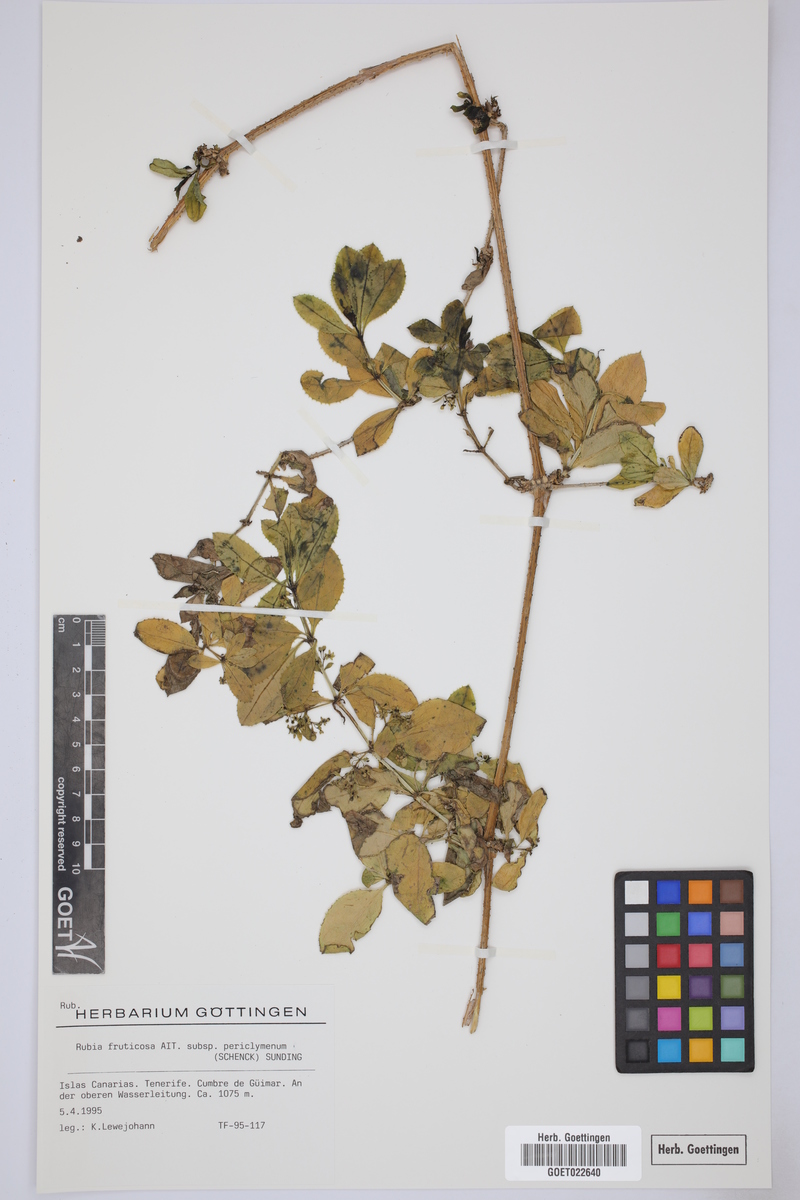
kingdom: Plantae
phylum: Tracheophyta
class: Magnoliopsida
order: Gentianales
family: Rubiaceae
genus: Rubia
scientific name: Rubia fruticosa
